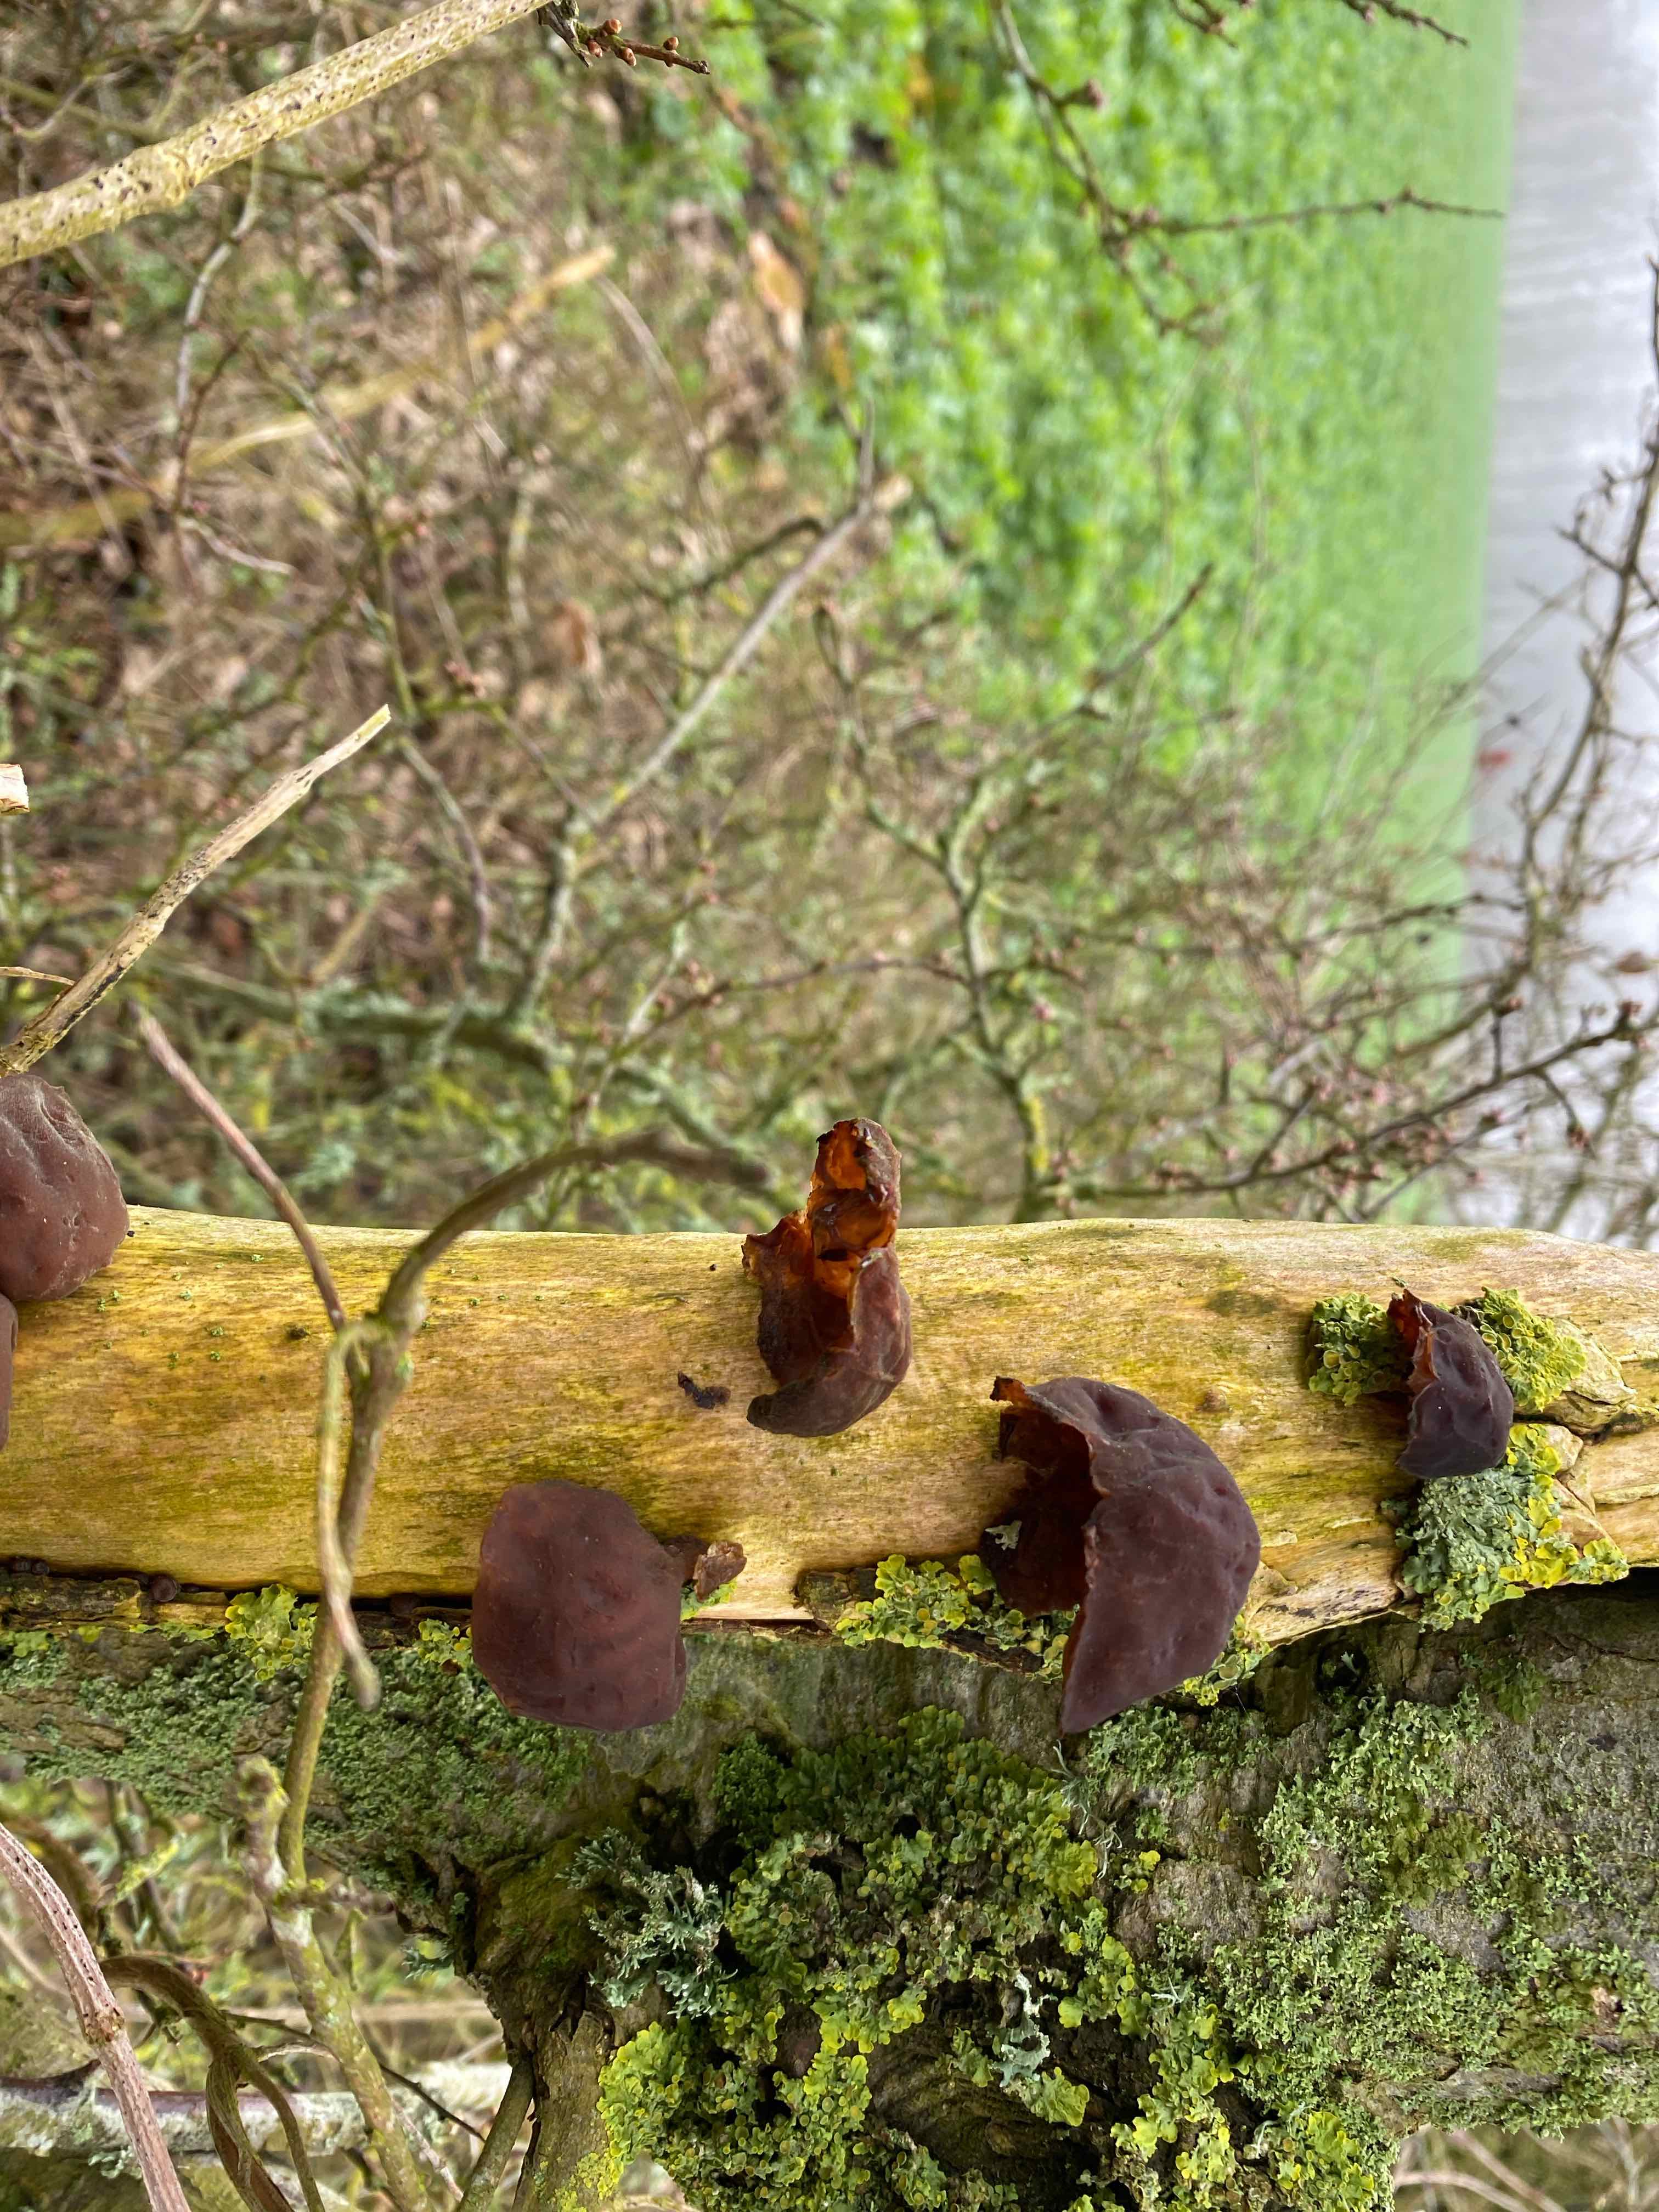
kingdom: Fungi
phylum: Basidiomycota
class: Agaricomycetes
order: Auriculariales
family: Auriculariaceae
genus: Auricularia
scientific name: Auricularia auricula-judae
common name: almindelig judasøre
